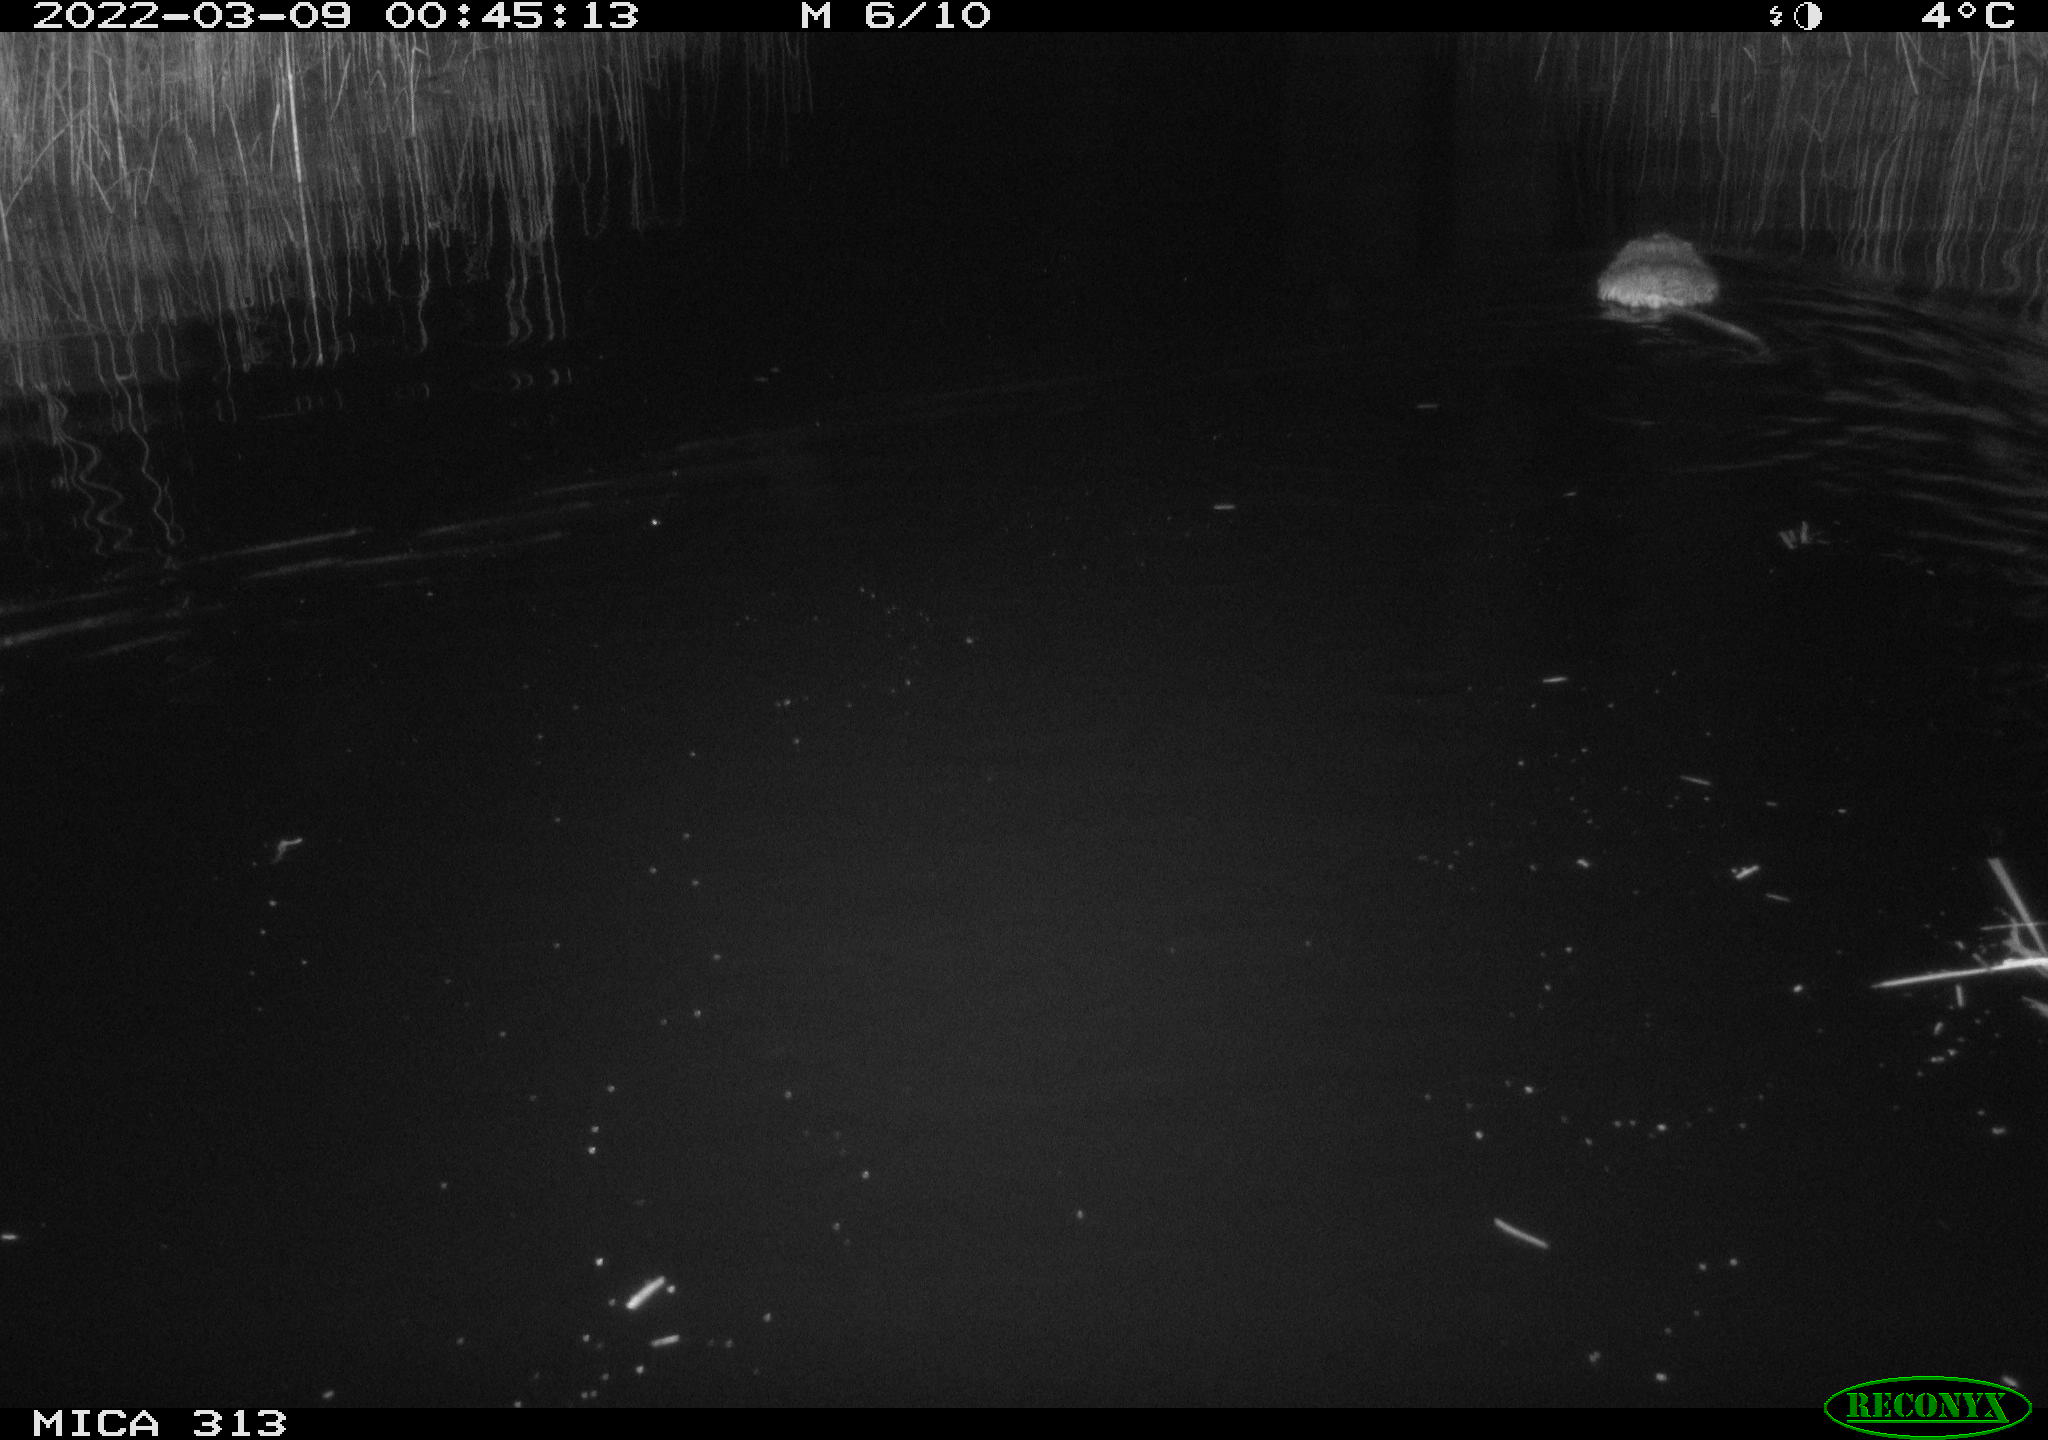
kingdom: Animalia
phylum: Chordata
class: Mammalia
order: Rodentia
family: Cricetidae
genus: Ondatra
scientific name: Ondatra zibethicus
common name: Muskrat
